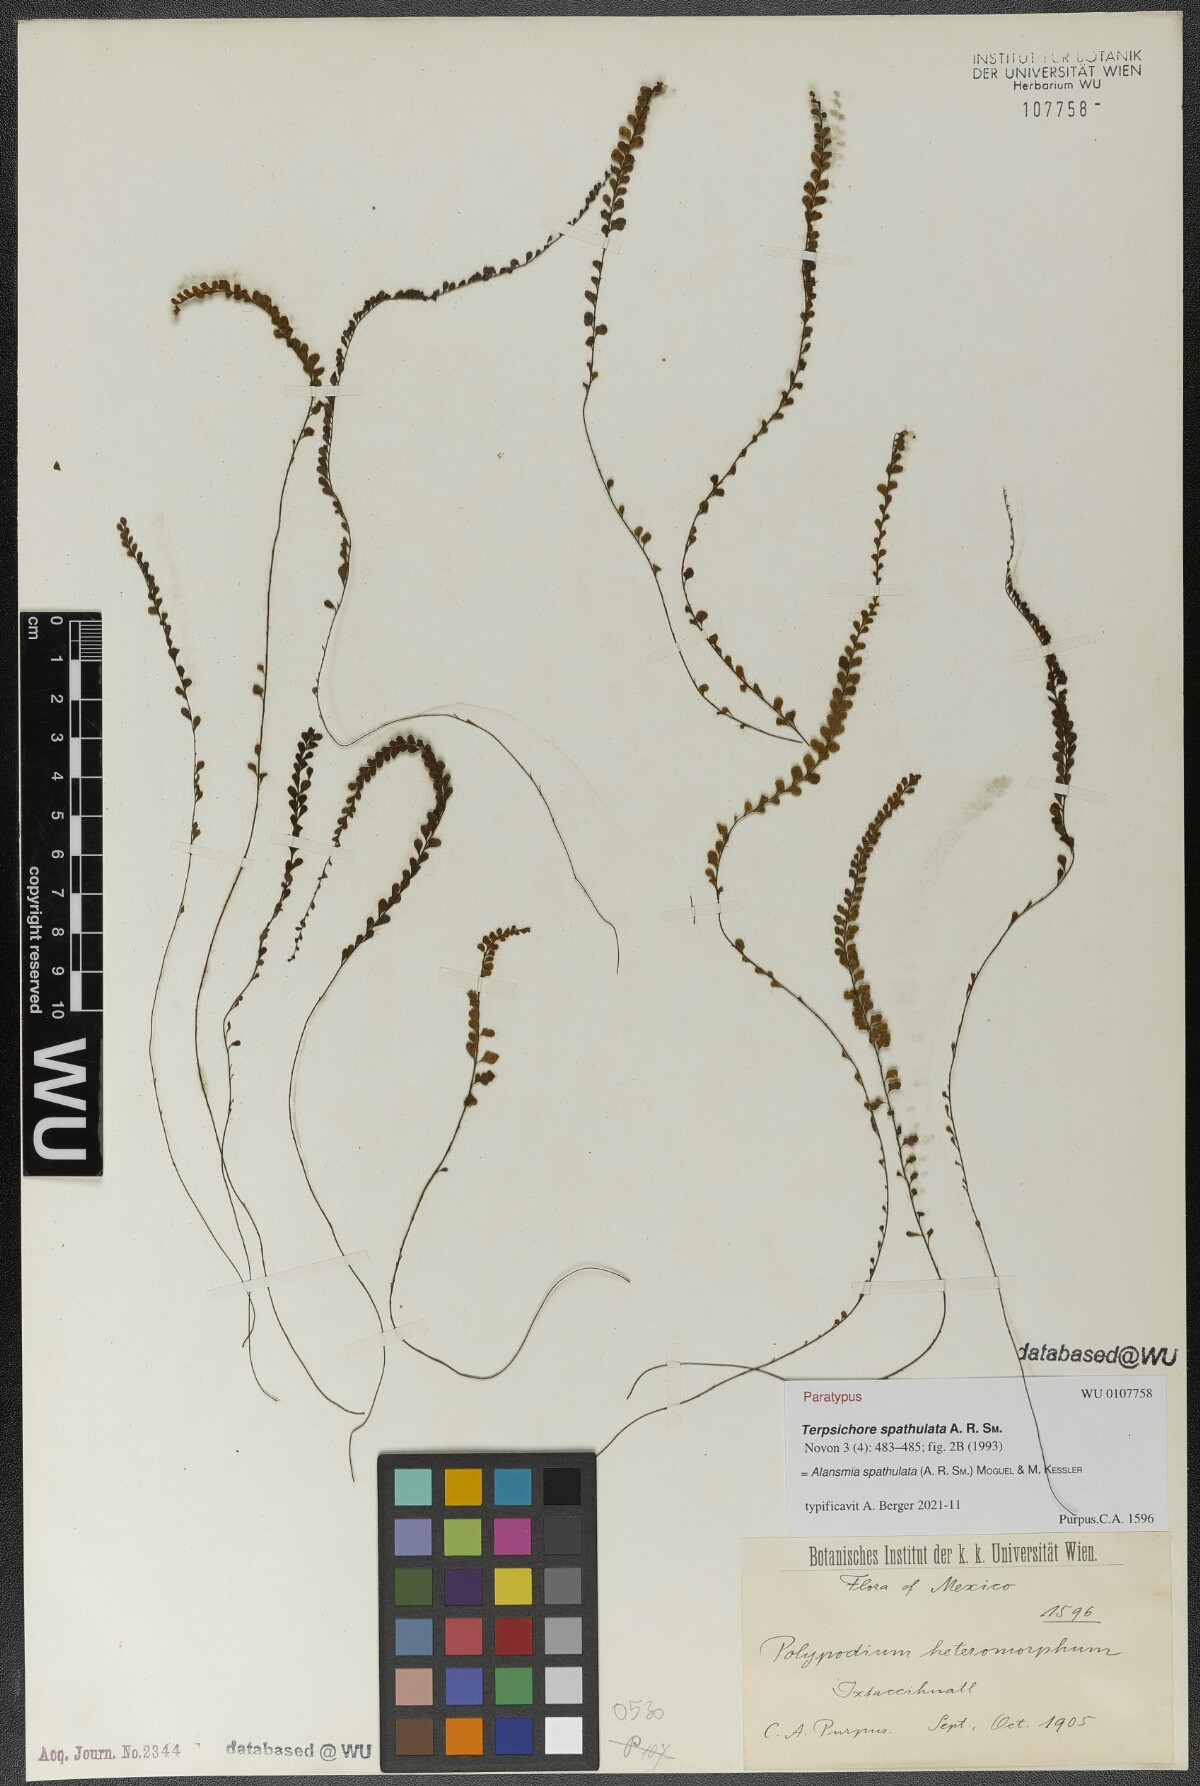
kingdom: Plantae
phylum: Tracheophyta
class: Polypodiopsida
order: Polypodiales
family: Polypodiaceae
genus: Alansmia
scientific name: Alansmia spathulata
